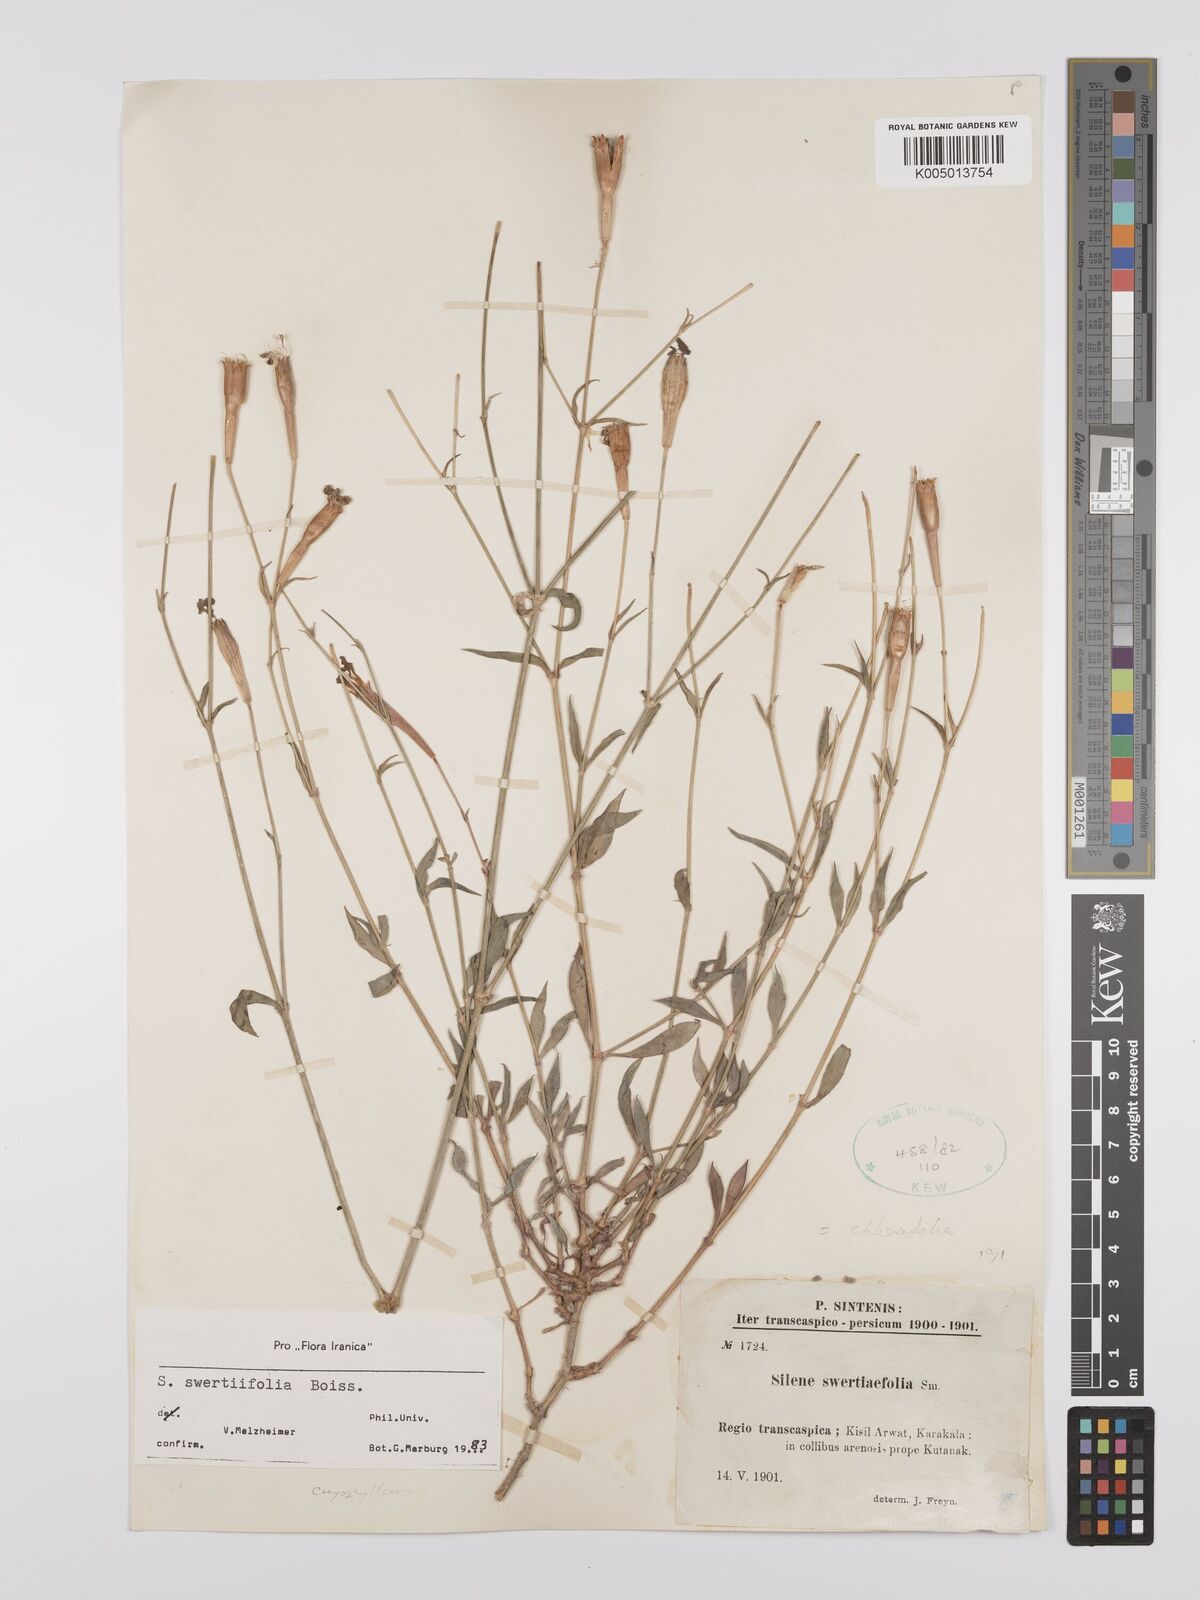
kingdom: Plantae
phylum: Tracheophyta
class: Magnoliopsida
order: Caryophyllales
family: Caryophyllaceae
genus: Silene
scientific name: Silene swertiifolia
